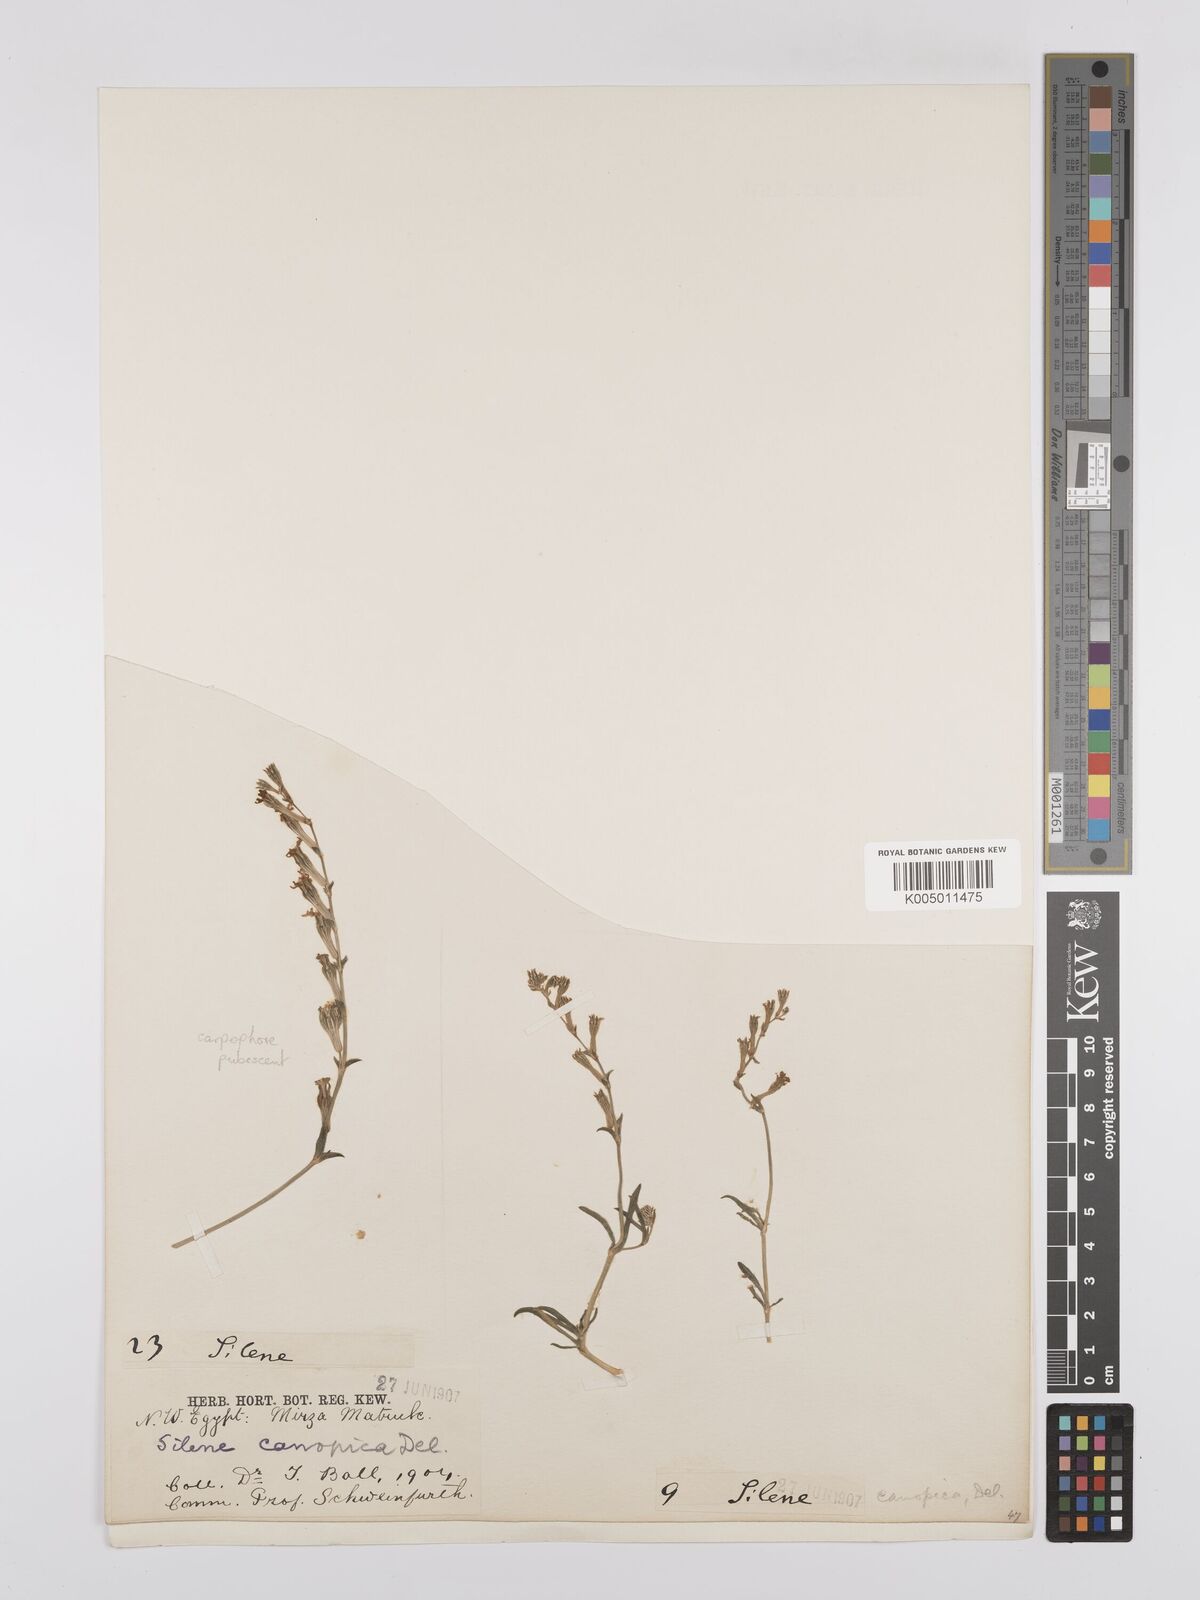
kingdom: Plantae
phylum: Tracheophyta
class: Magnoliopsida
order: Caryophyllales
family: Caryophyllaceae
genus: Silene
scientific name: Silene biappendiculata
